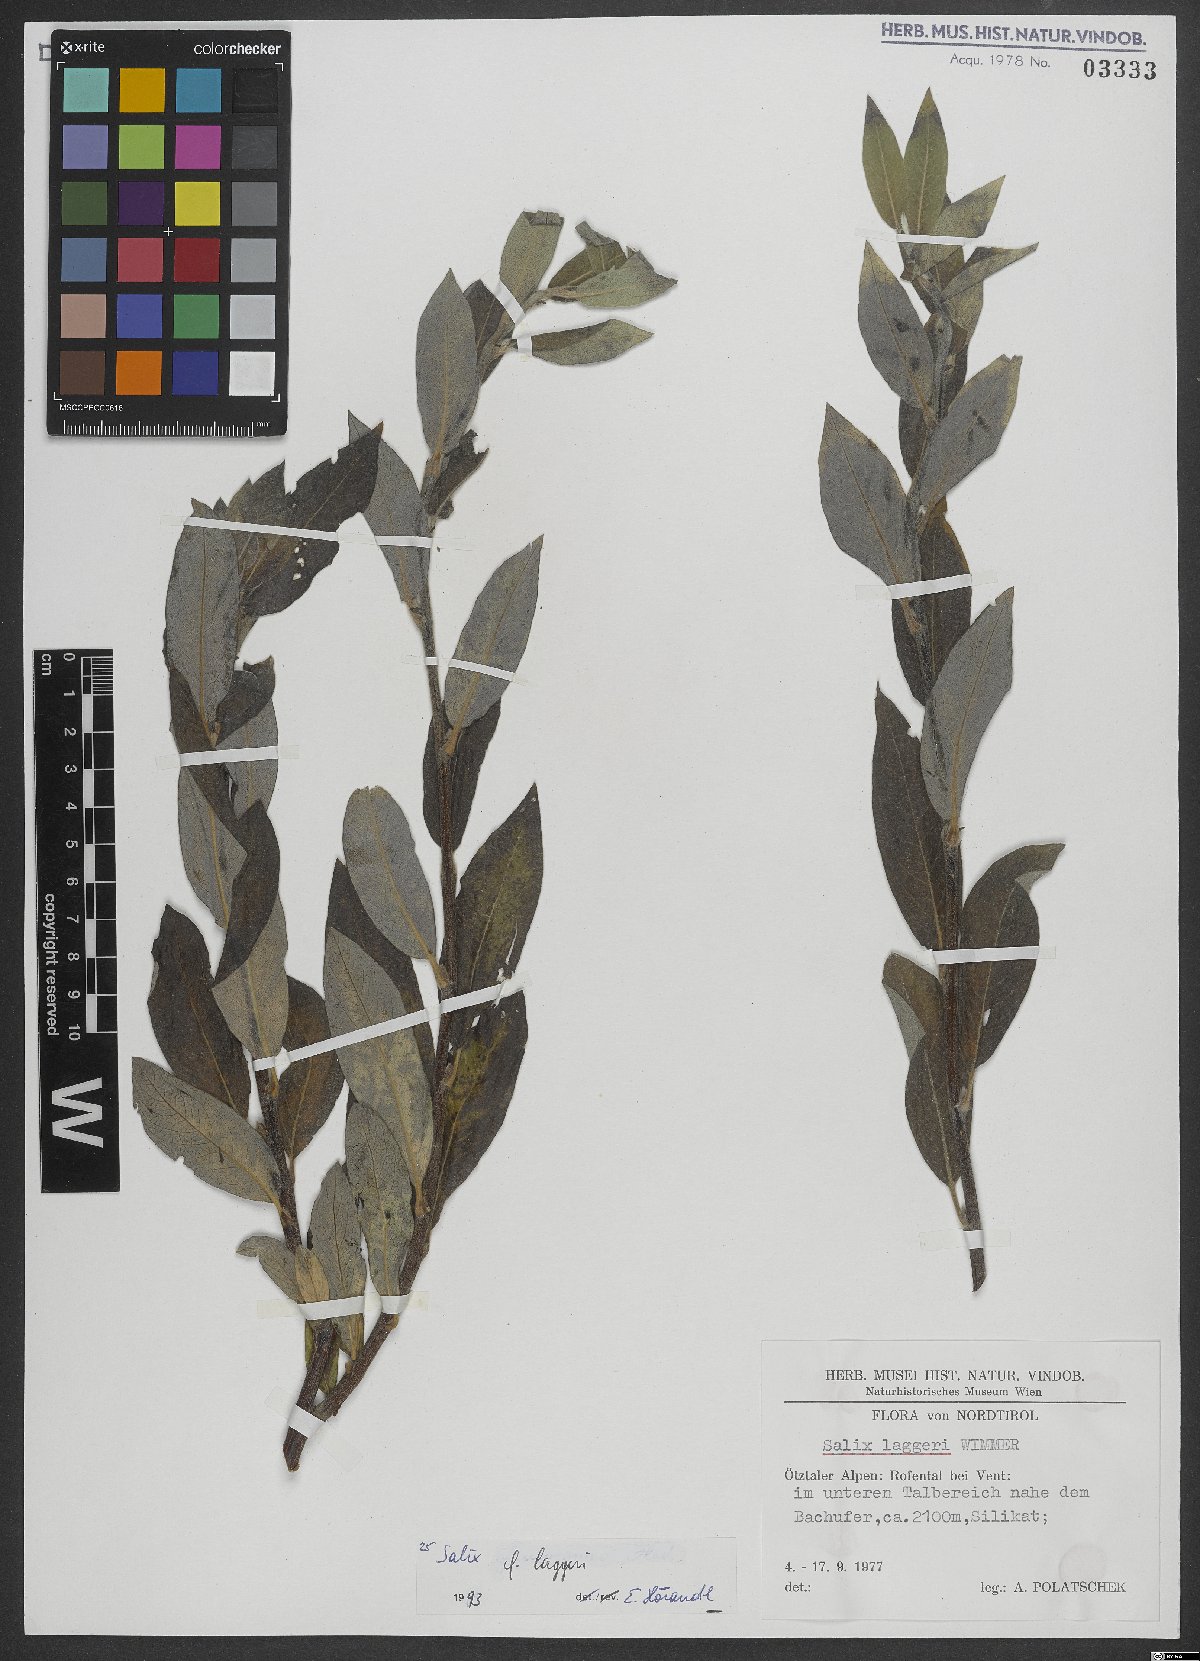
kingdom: Plantae
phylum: Tracheophyta
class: Magnoliopsida
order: Malpighiales
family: Salicaceae
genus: Salix
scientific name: Salix laggeri
